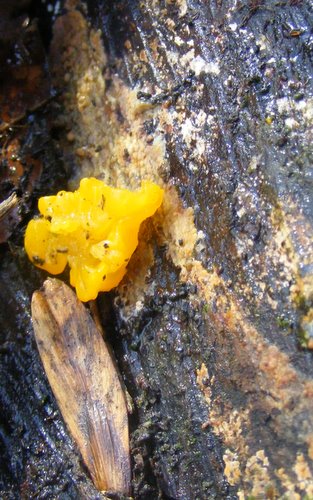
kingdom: Fungi
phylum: Basidiomycota
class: Tremellomycetes
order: Tremellales
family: Tremellaceae
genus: Tremella
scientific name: Tremella mesenterica
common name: gul bævresvamp
